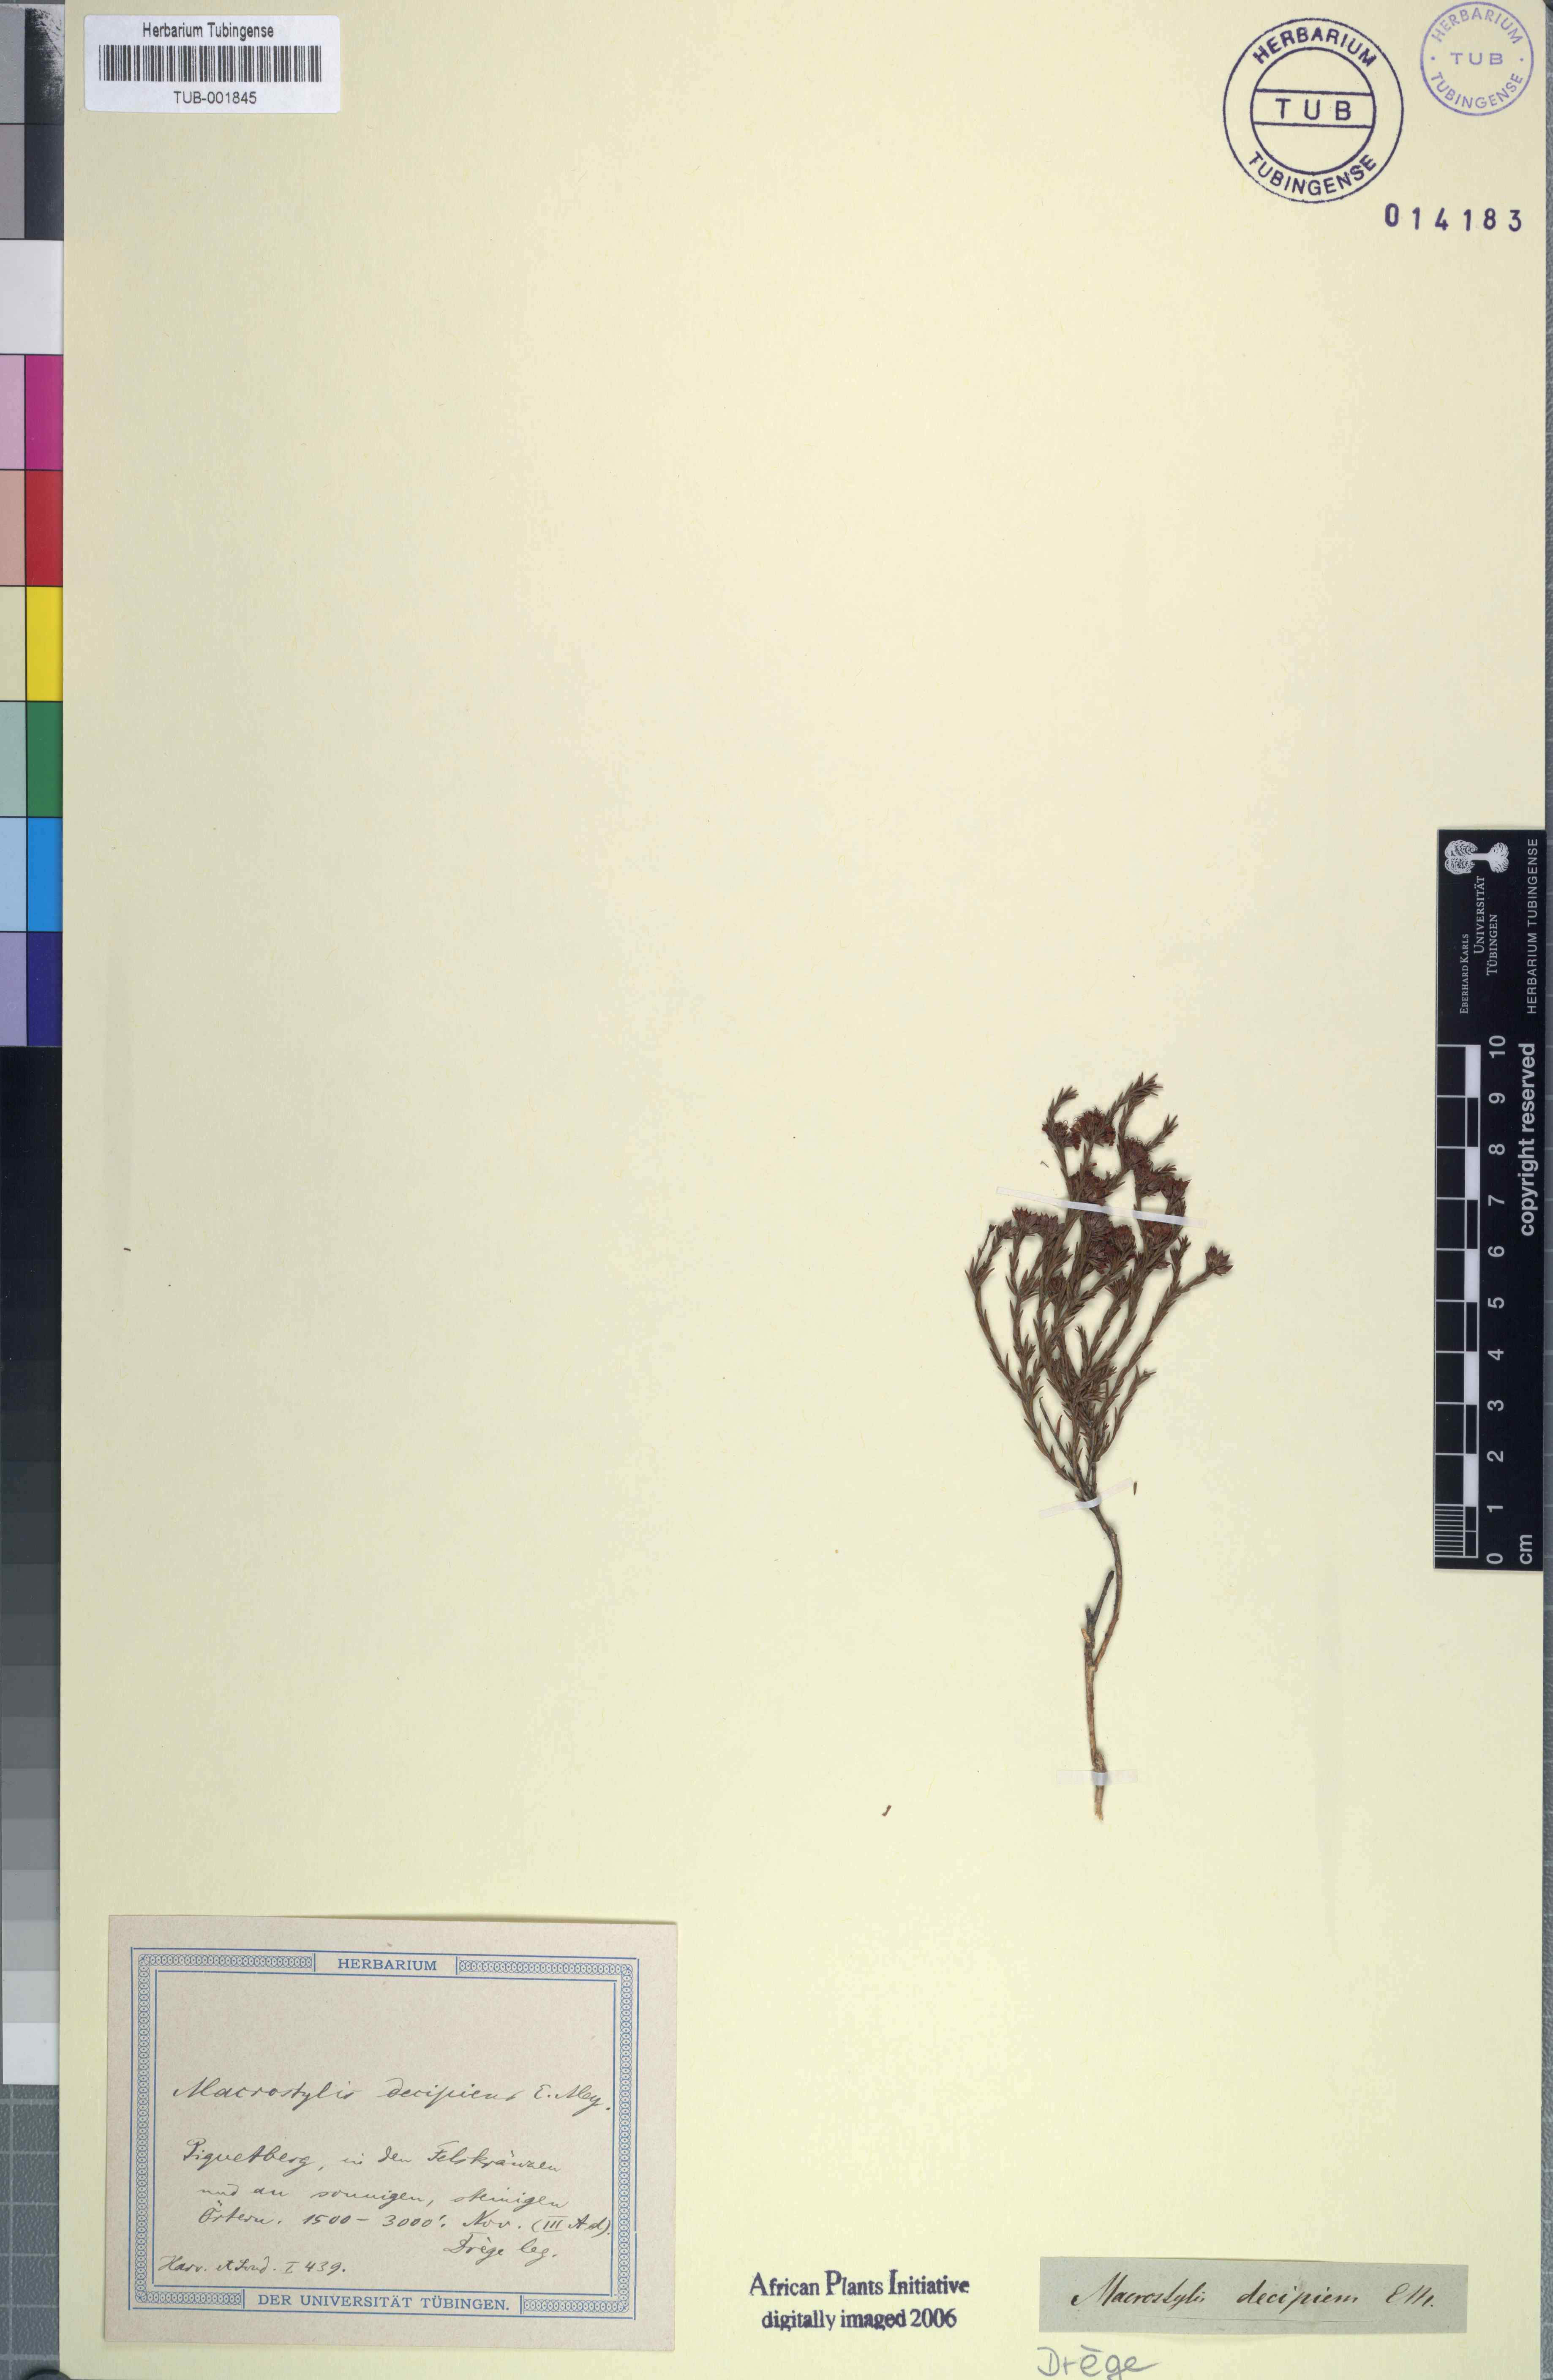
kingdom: Plantae
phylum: Tracheophyta
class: Magnoliopsida
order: Sapindales
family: Rutaceae
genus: Macrostylis
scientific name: Macrostylis decipiens
